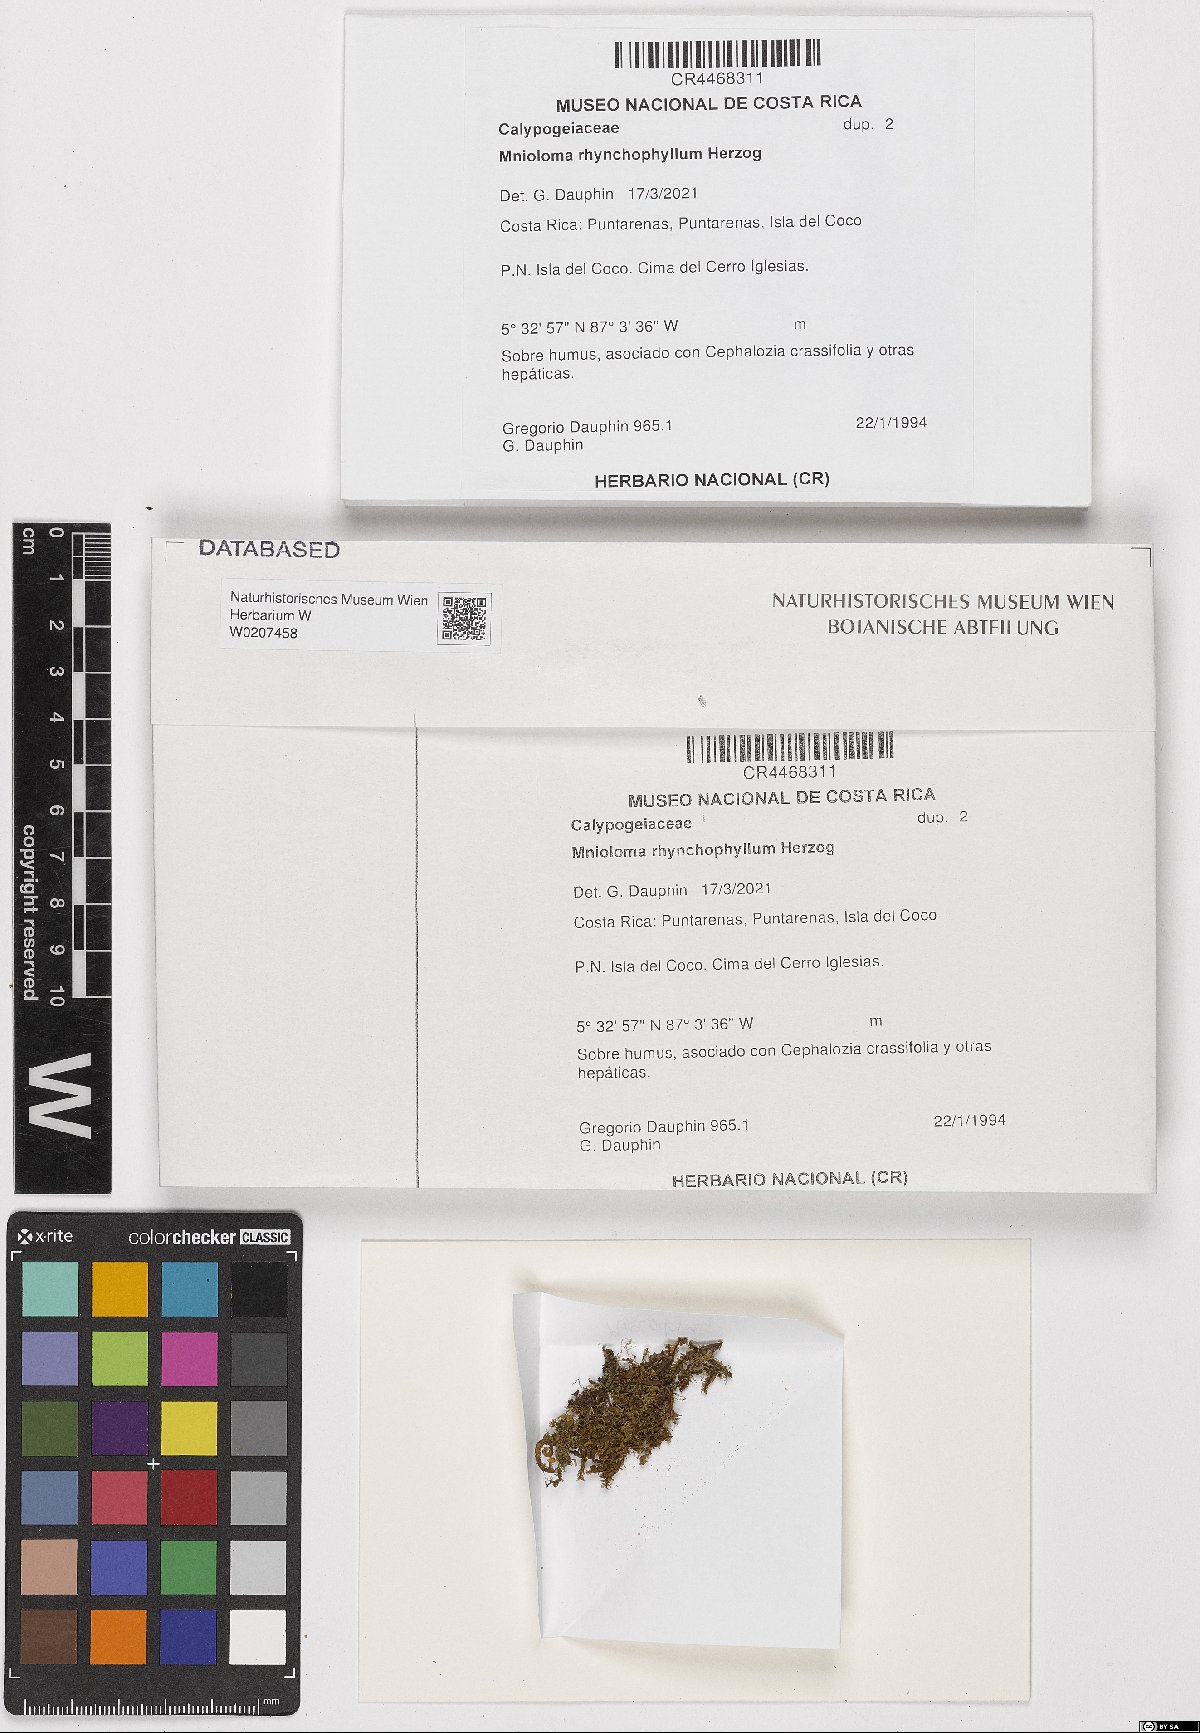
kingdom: Plantae
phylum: Marchantiophyta
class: Jungermanniopsida
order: Jungermanniales
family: Calypogeiaceae
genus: Mnioloma
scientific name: Mnioloma rhynchophyllum
